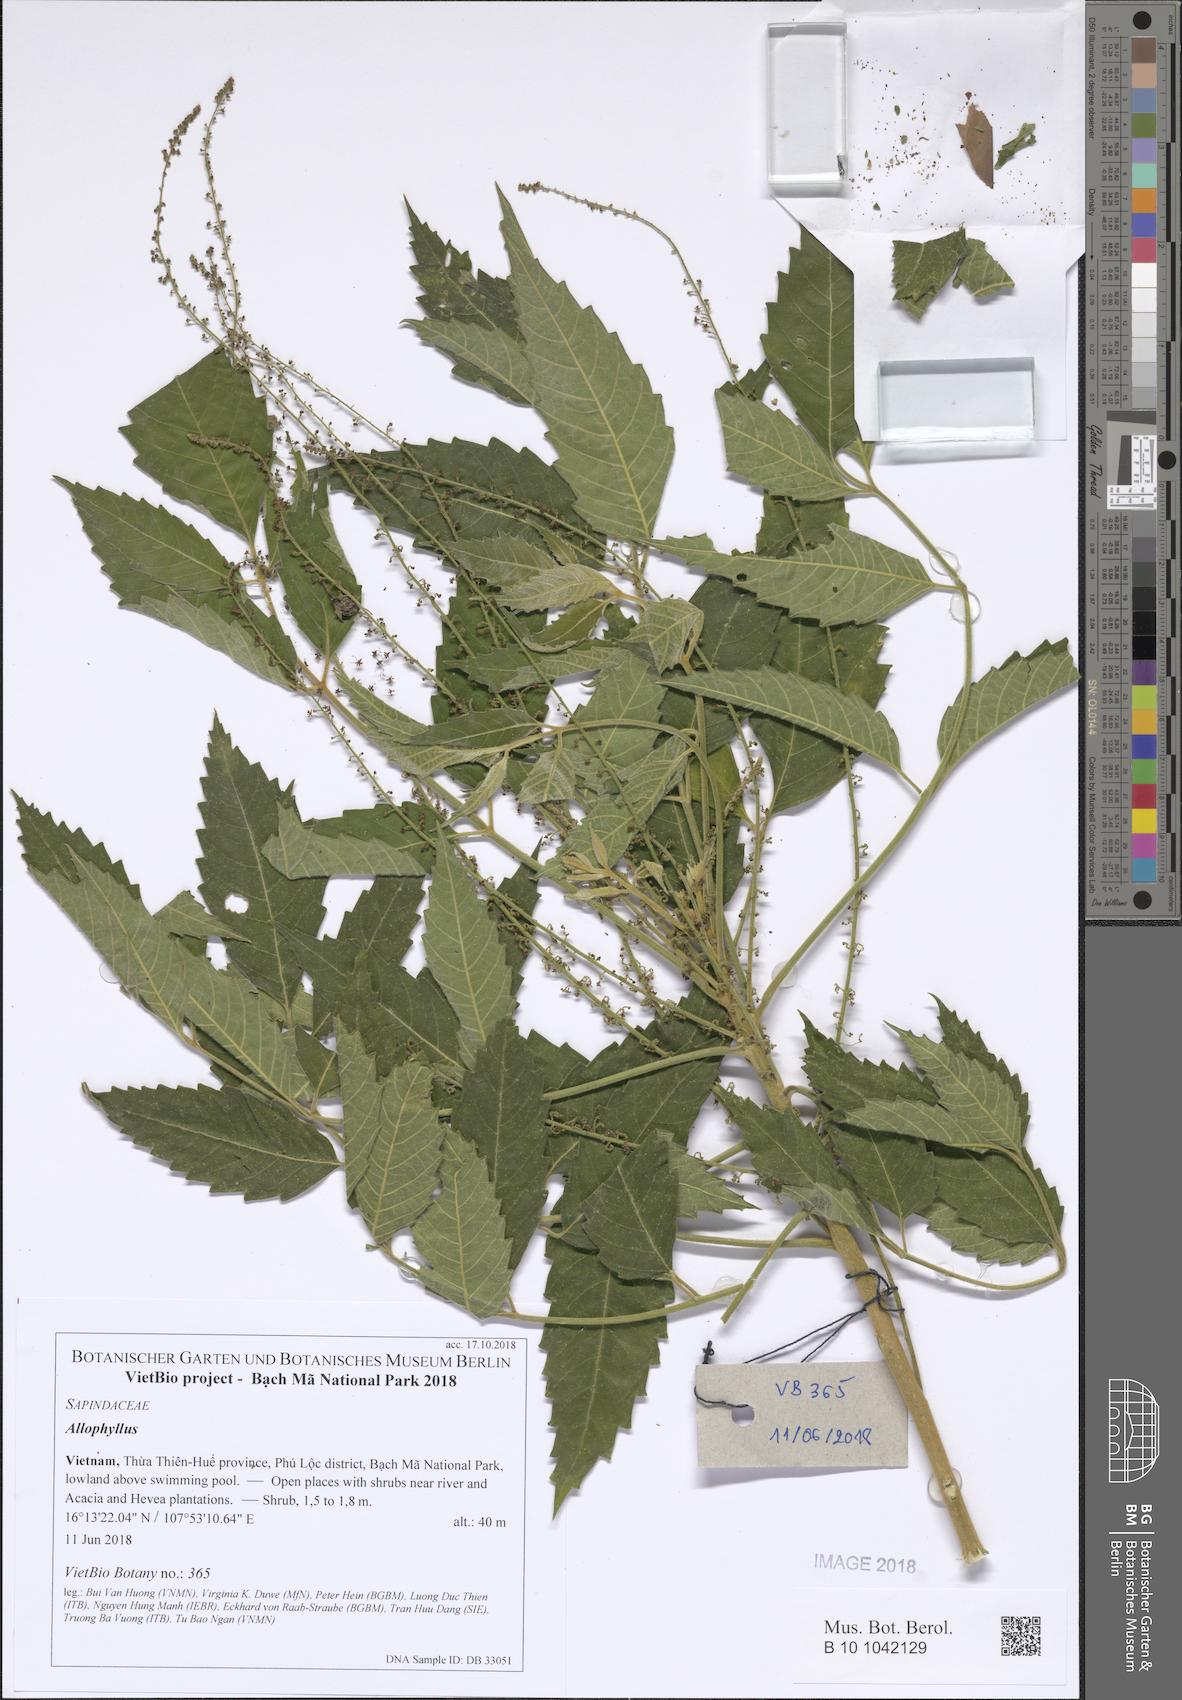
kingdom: Plantae
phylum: Tracheophyta
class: Magnoliopsida
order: Sapindales
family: Sapindaceae
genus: Allophyllus
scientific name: Allophyllus
